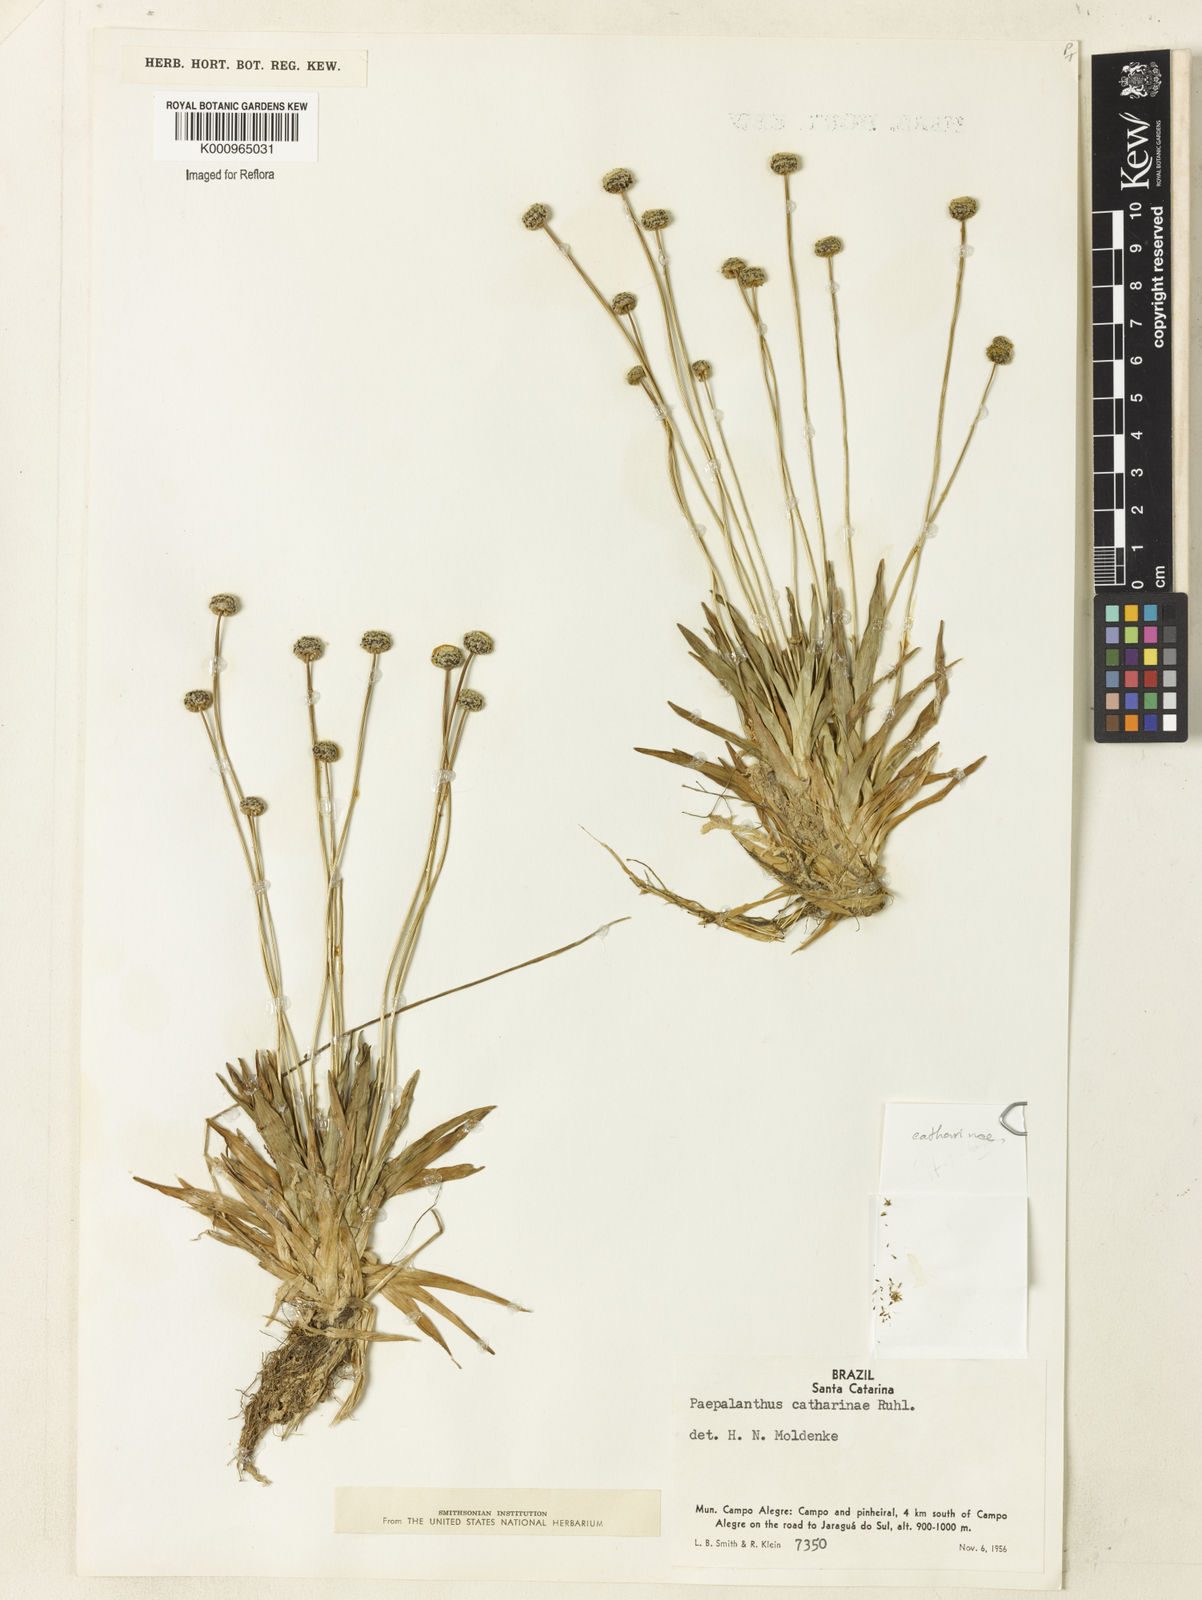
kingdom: Plantae
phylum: Tracheophyta
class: Liliopsida
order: Poales
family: Eriocaulaceae
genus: Paepalanthus
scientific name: Paepalanthus catharinae
